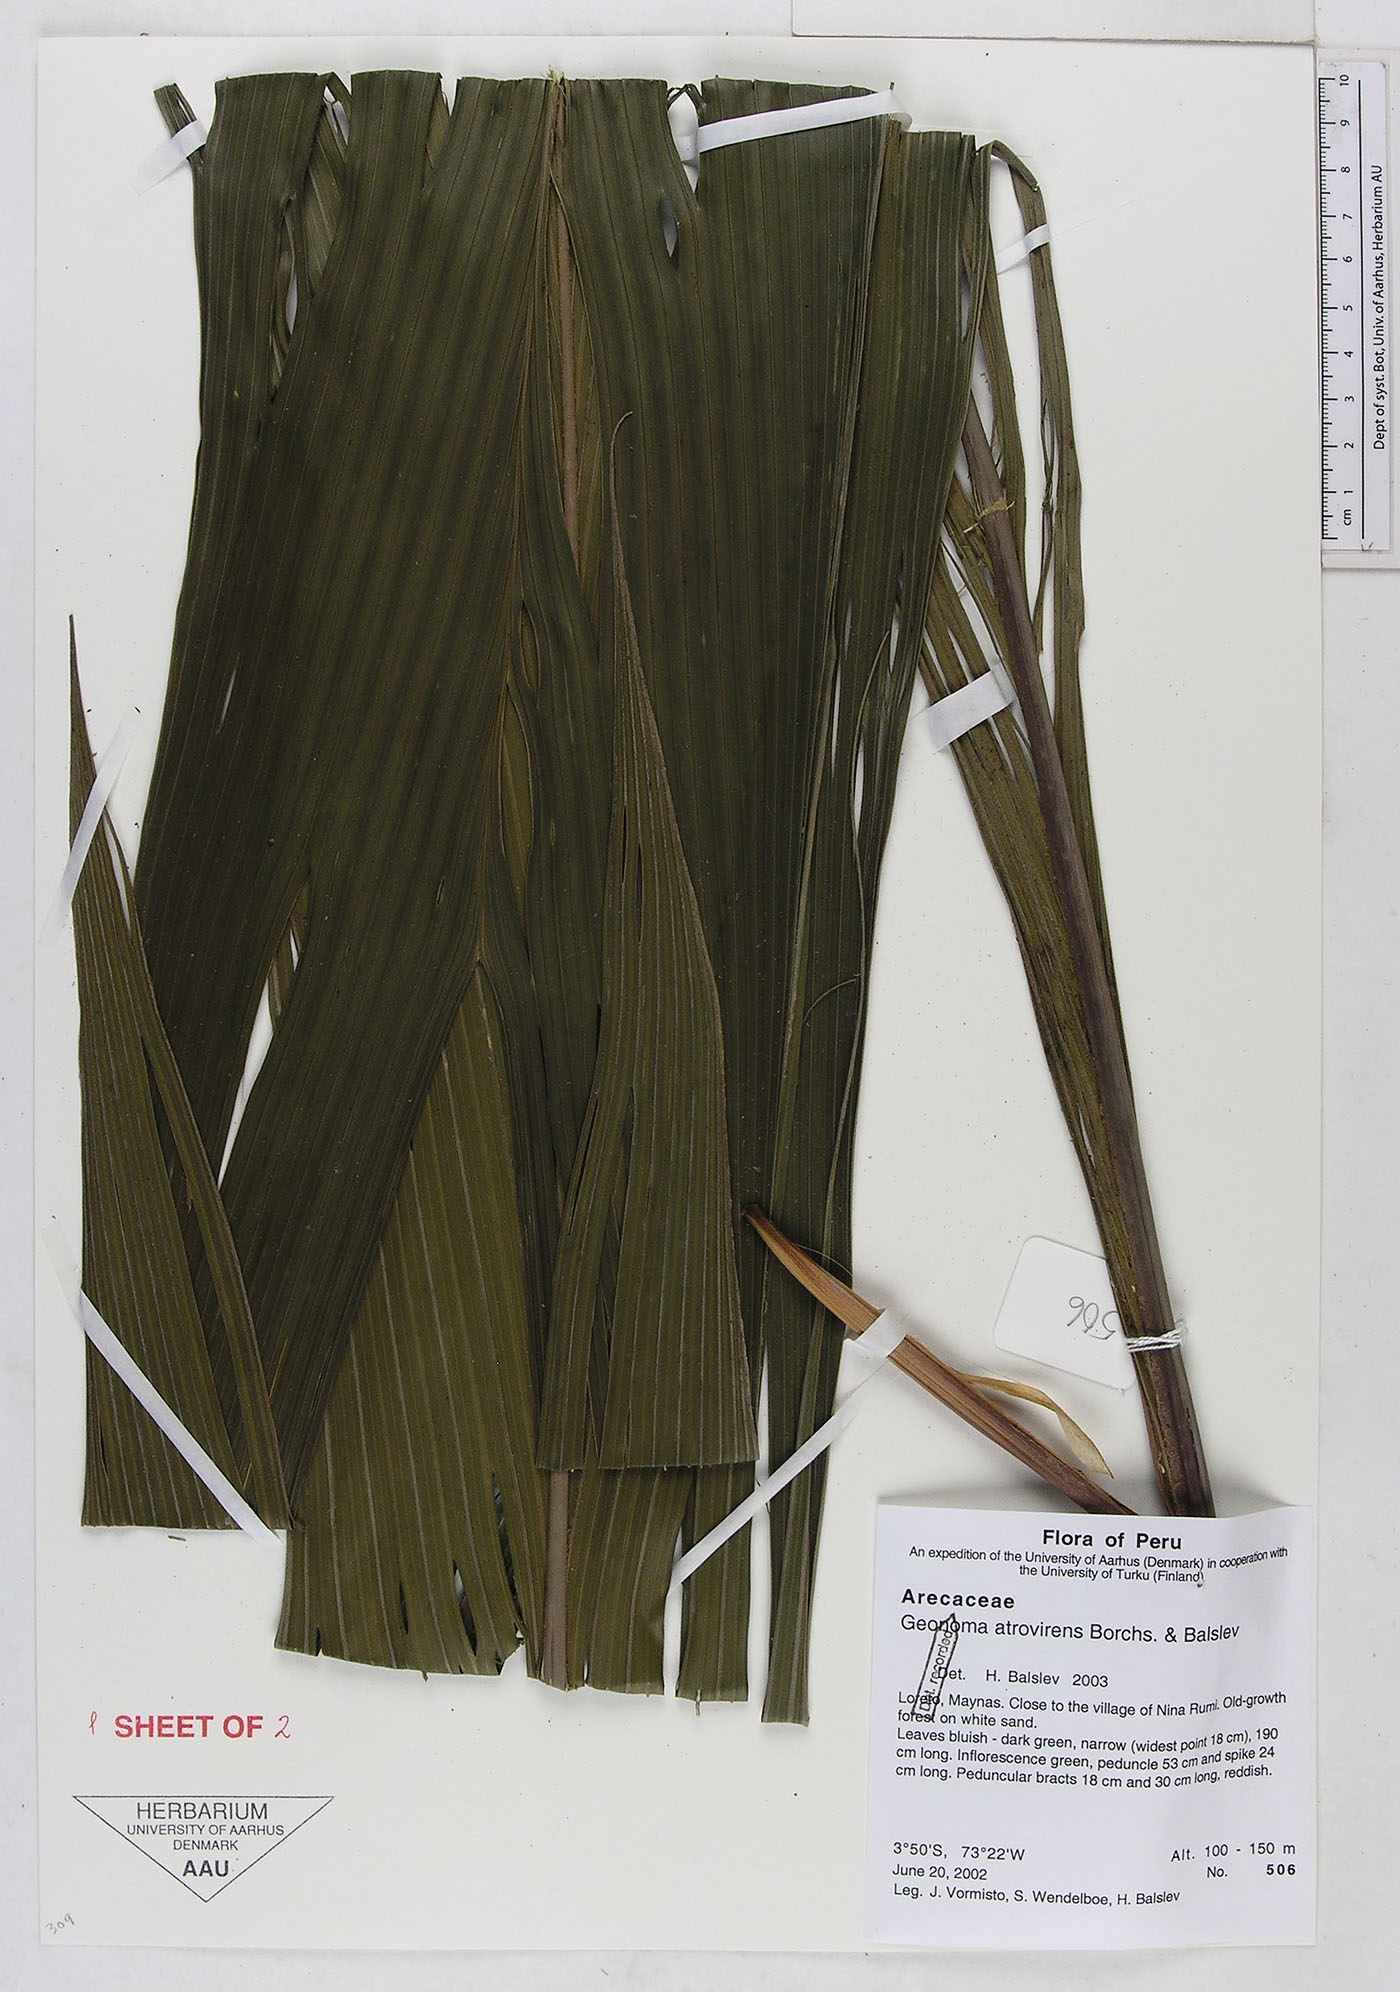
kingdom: Plantae
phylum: Tracheophyta
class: Liliopsida
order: Arecales
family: Arecaceae
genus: Geonoma
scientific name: Geonoma macrostachys
